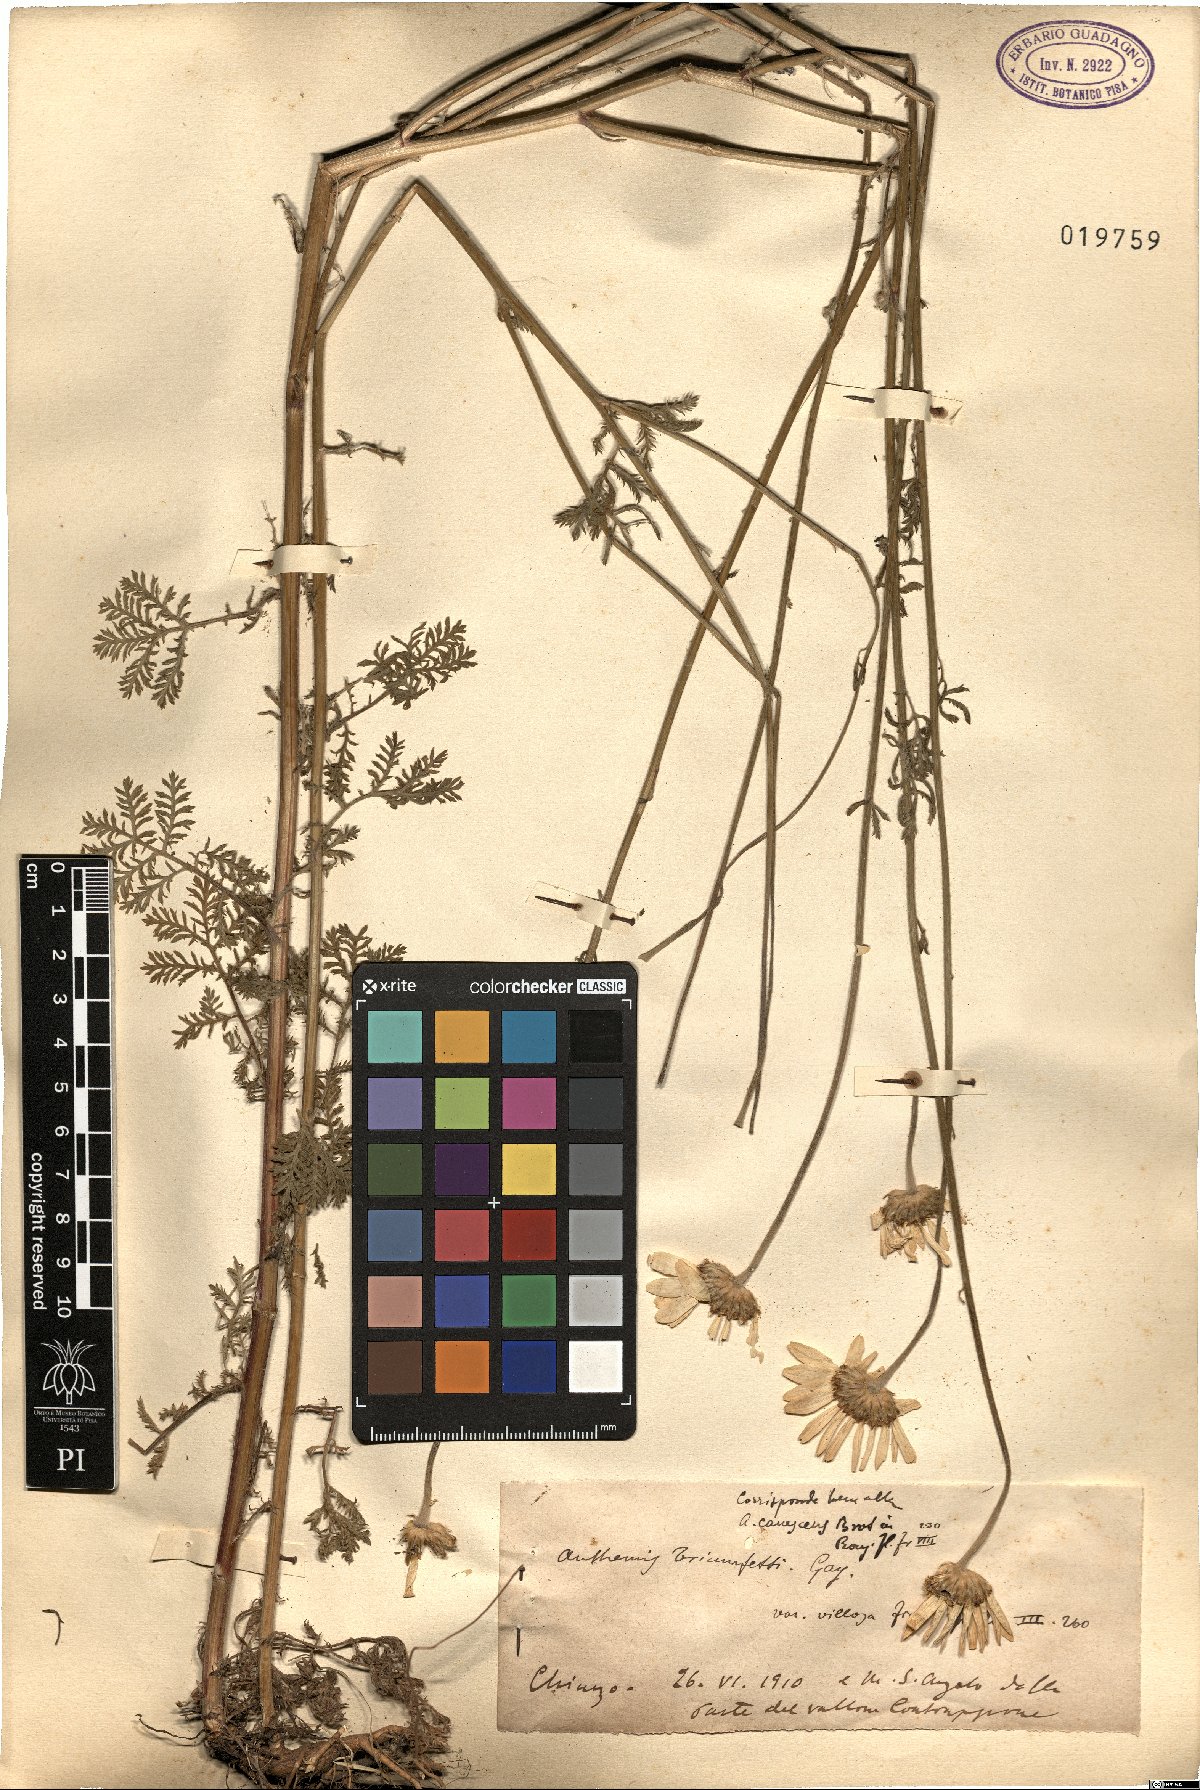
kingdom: Plantae
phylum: Tracheophyta
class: Magnoliopsida
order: Asterales
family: Asteraceae
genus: Cota
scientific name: Cota triumfetti
